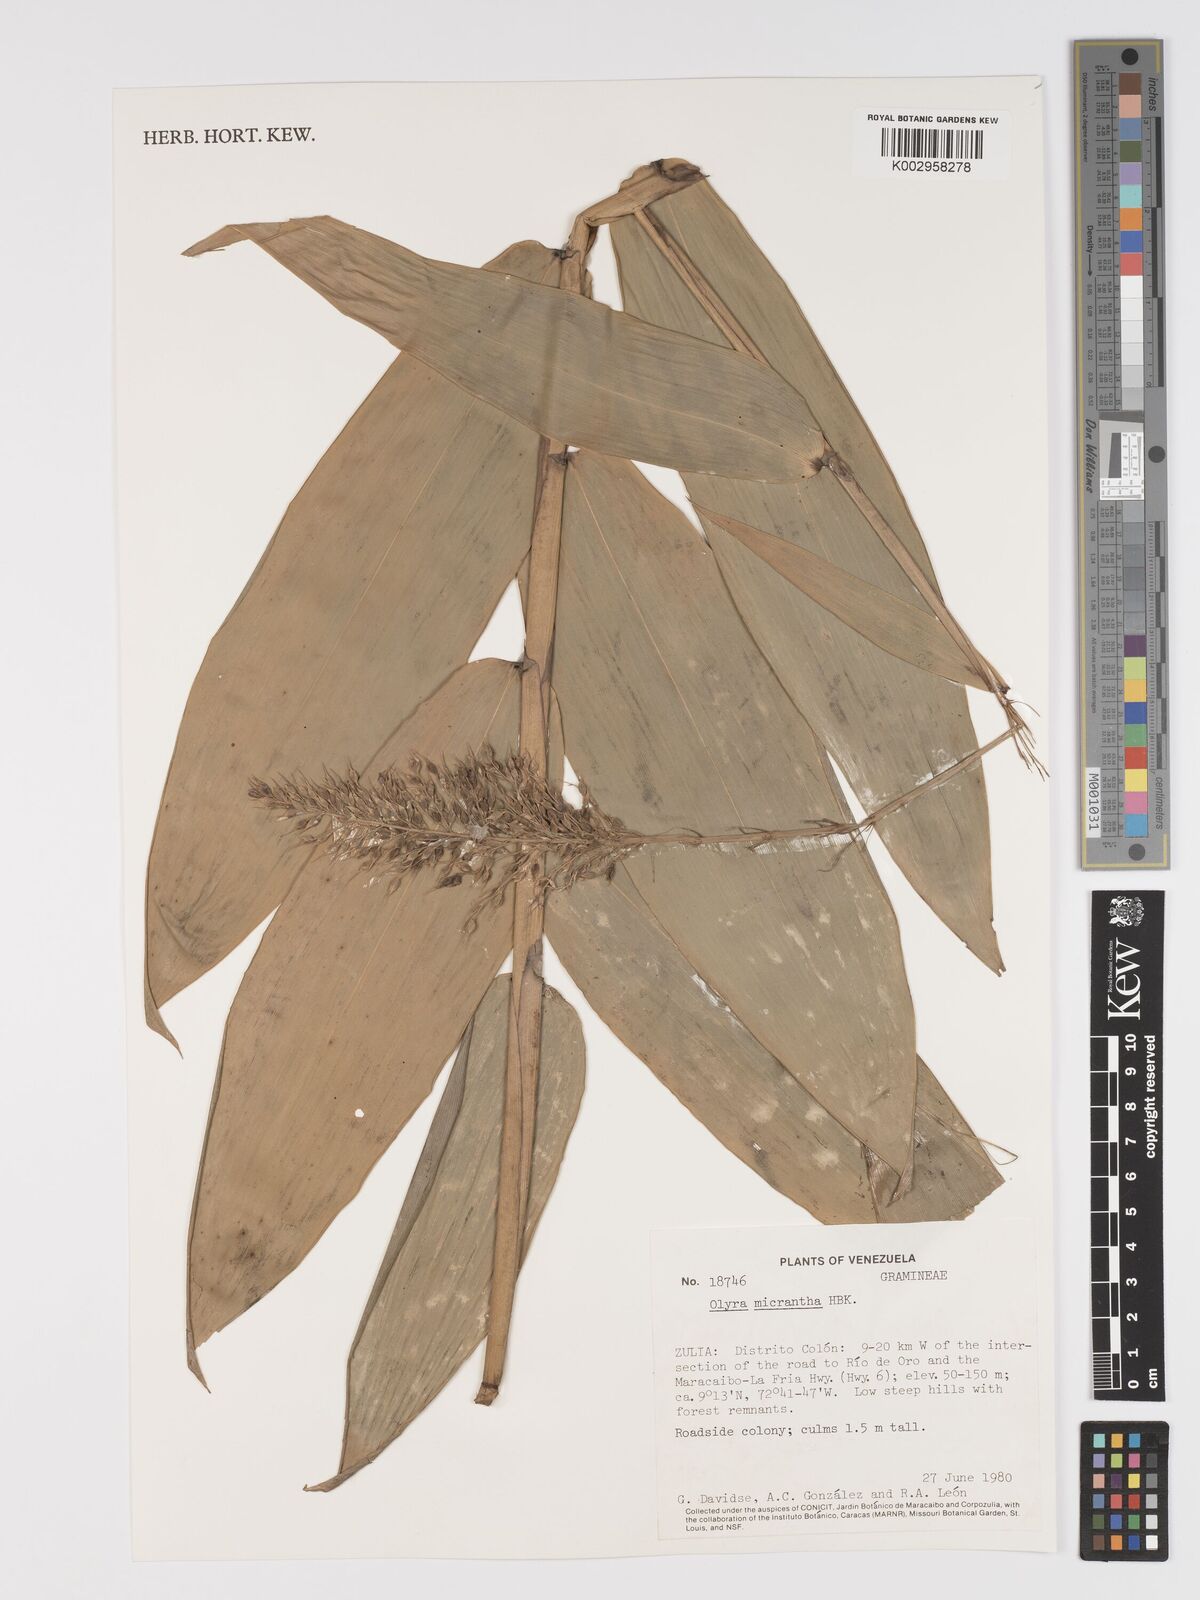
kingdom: Plantae
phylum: Tracheophyta
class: Liliopsida
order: Poales
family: Poaceae
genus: Taquara
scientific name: Taquara micrantha
